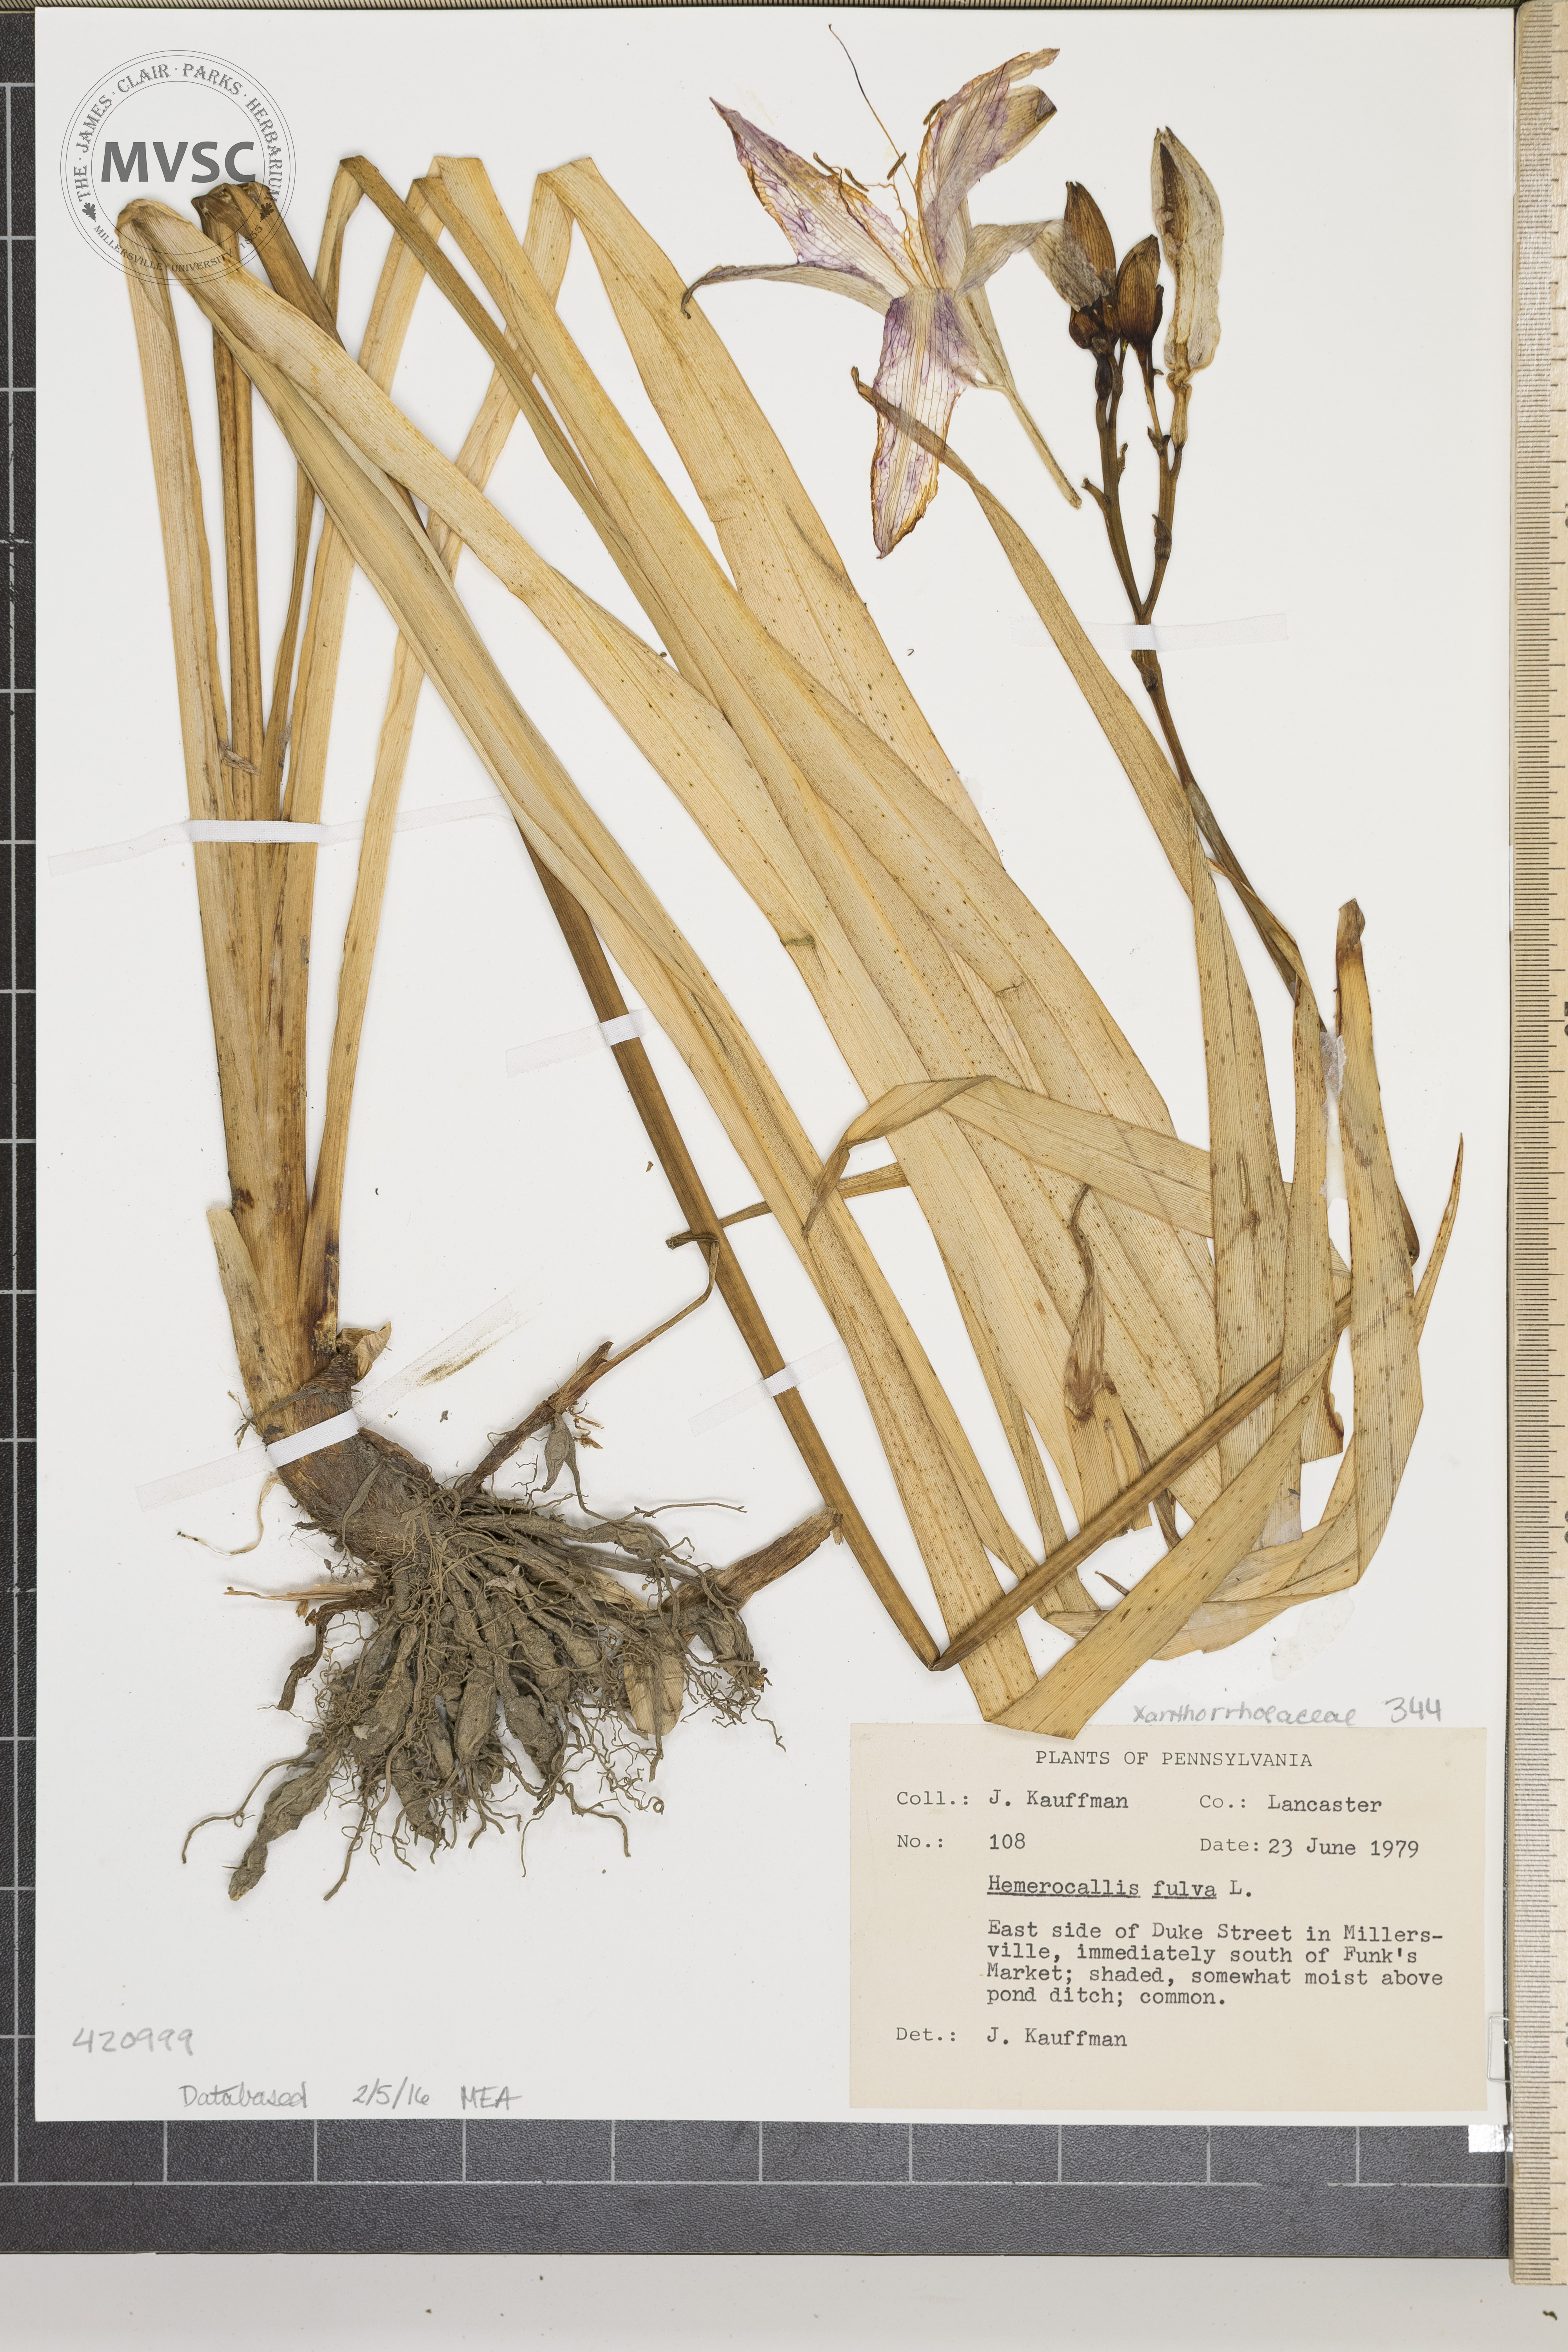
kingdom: Plantae
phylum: Tracheophyta
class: Liliopsida
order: Asparagales
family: Asphodelaceae
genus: Hemerocallis
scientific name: Hemerocallis fulva
